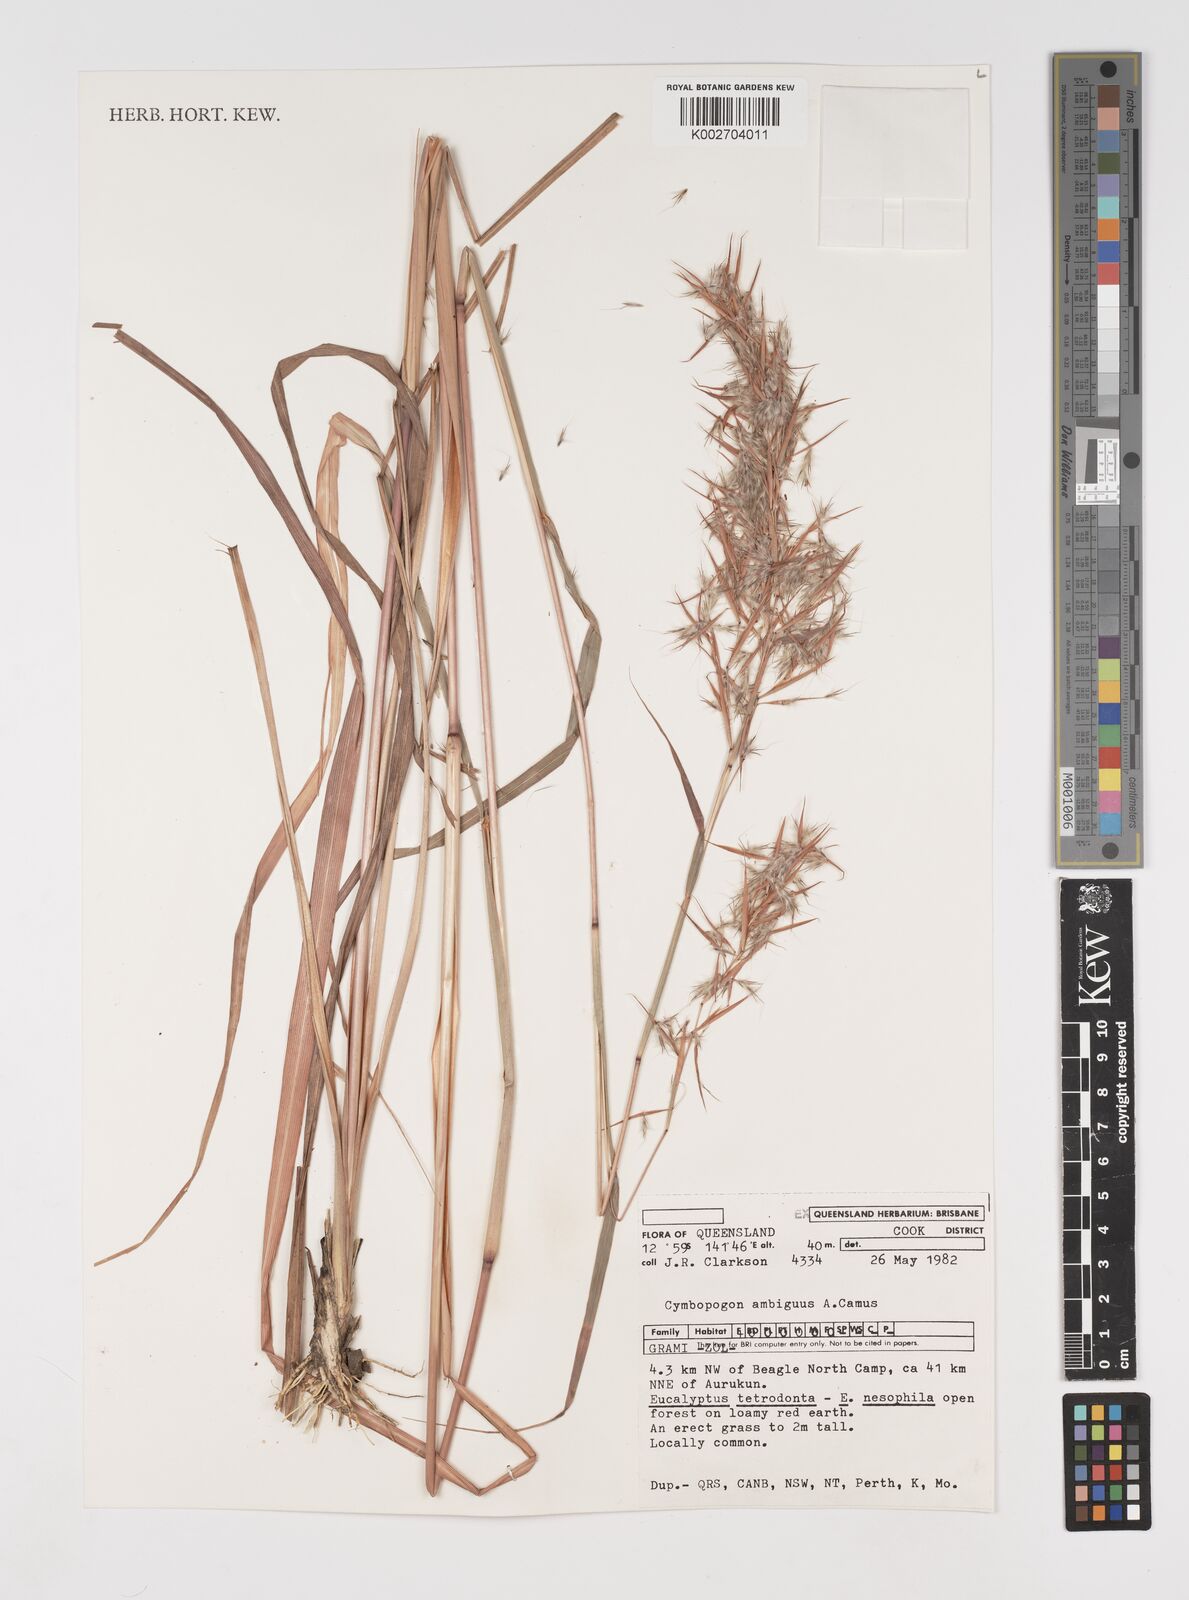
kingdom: Plantae
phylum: Tracheophyta
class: Liliopsida
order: Poales
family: Poaceae
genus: Cymbopogon
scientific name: Cymbopogon ambiguus
